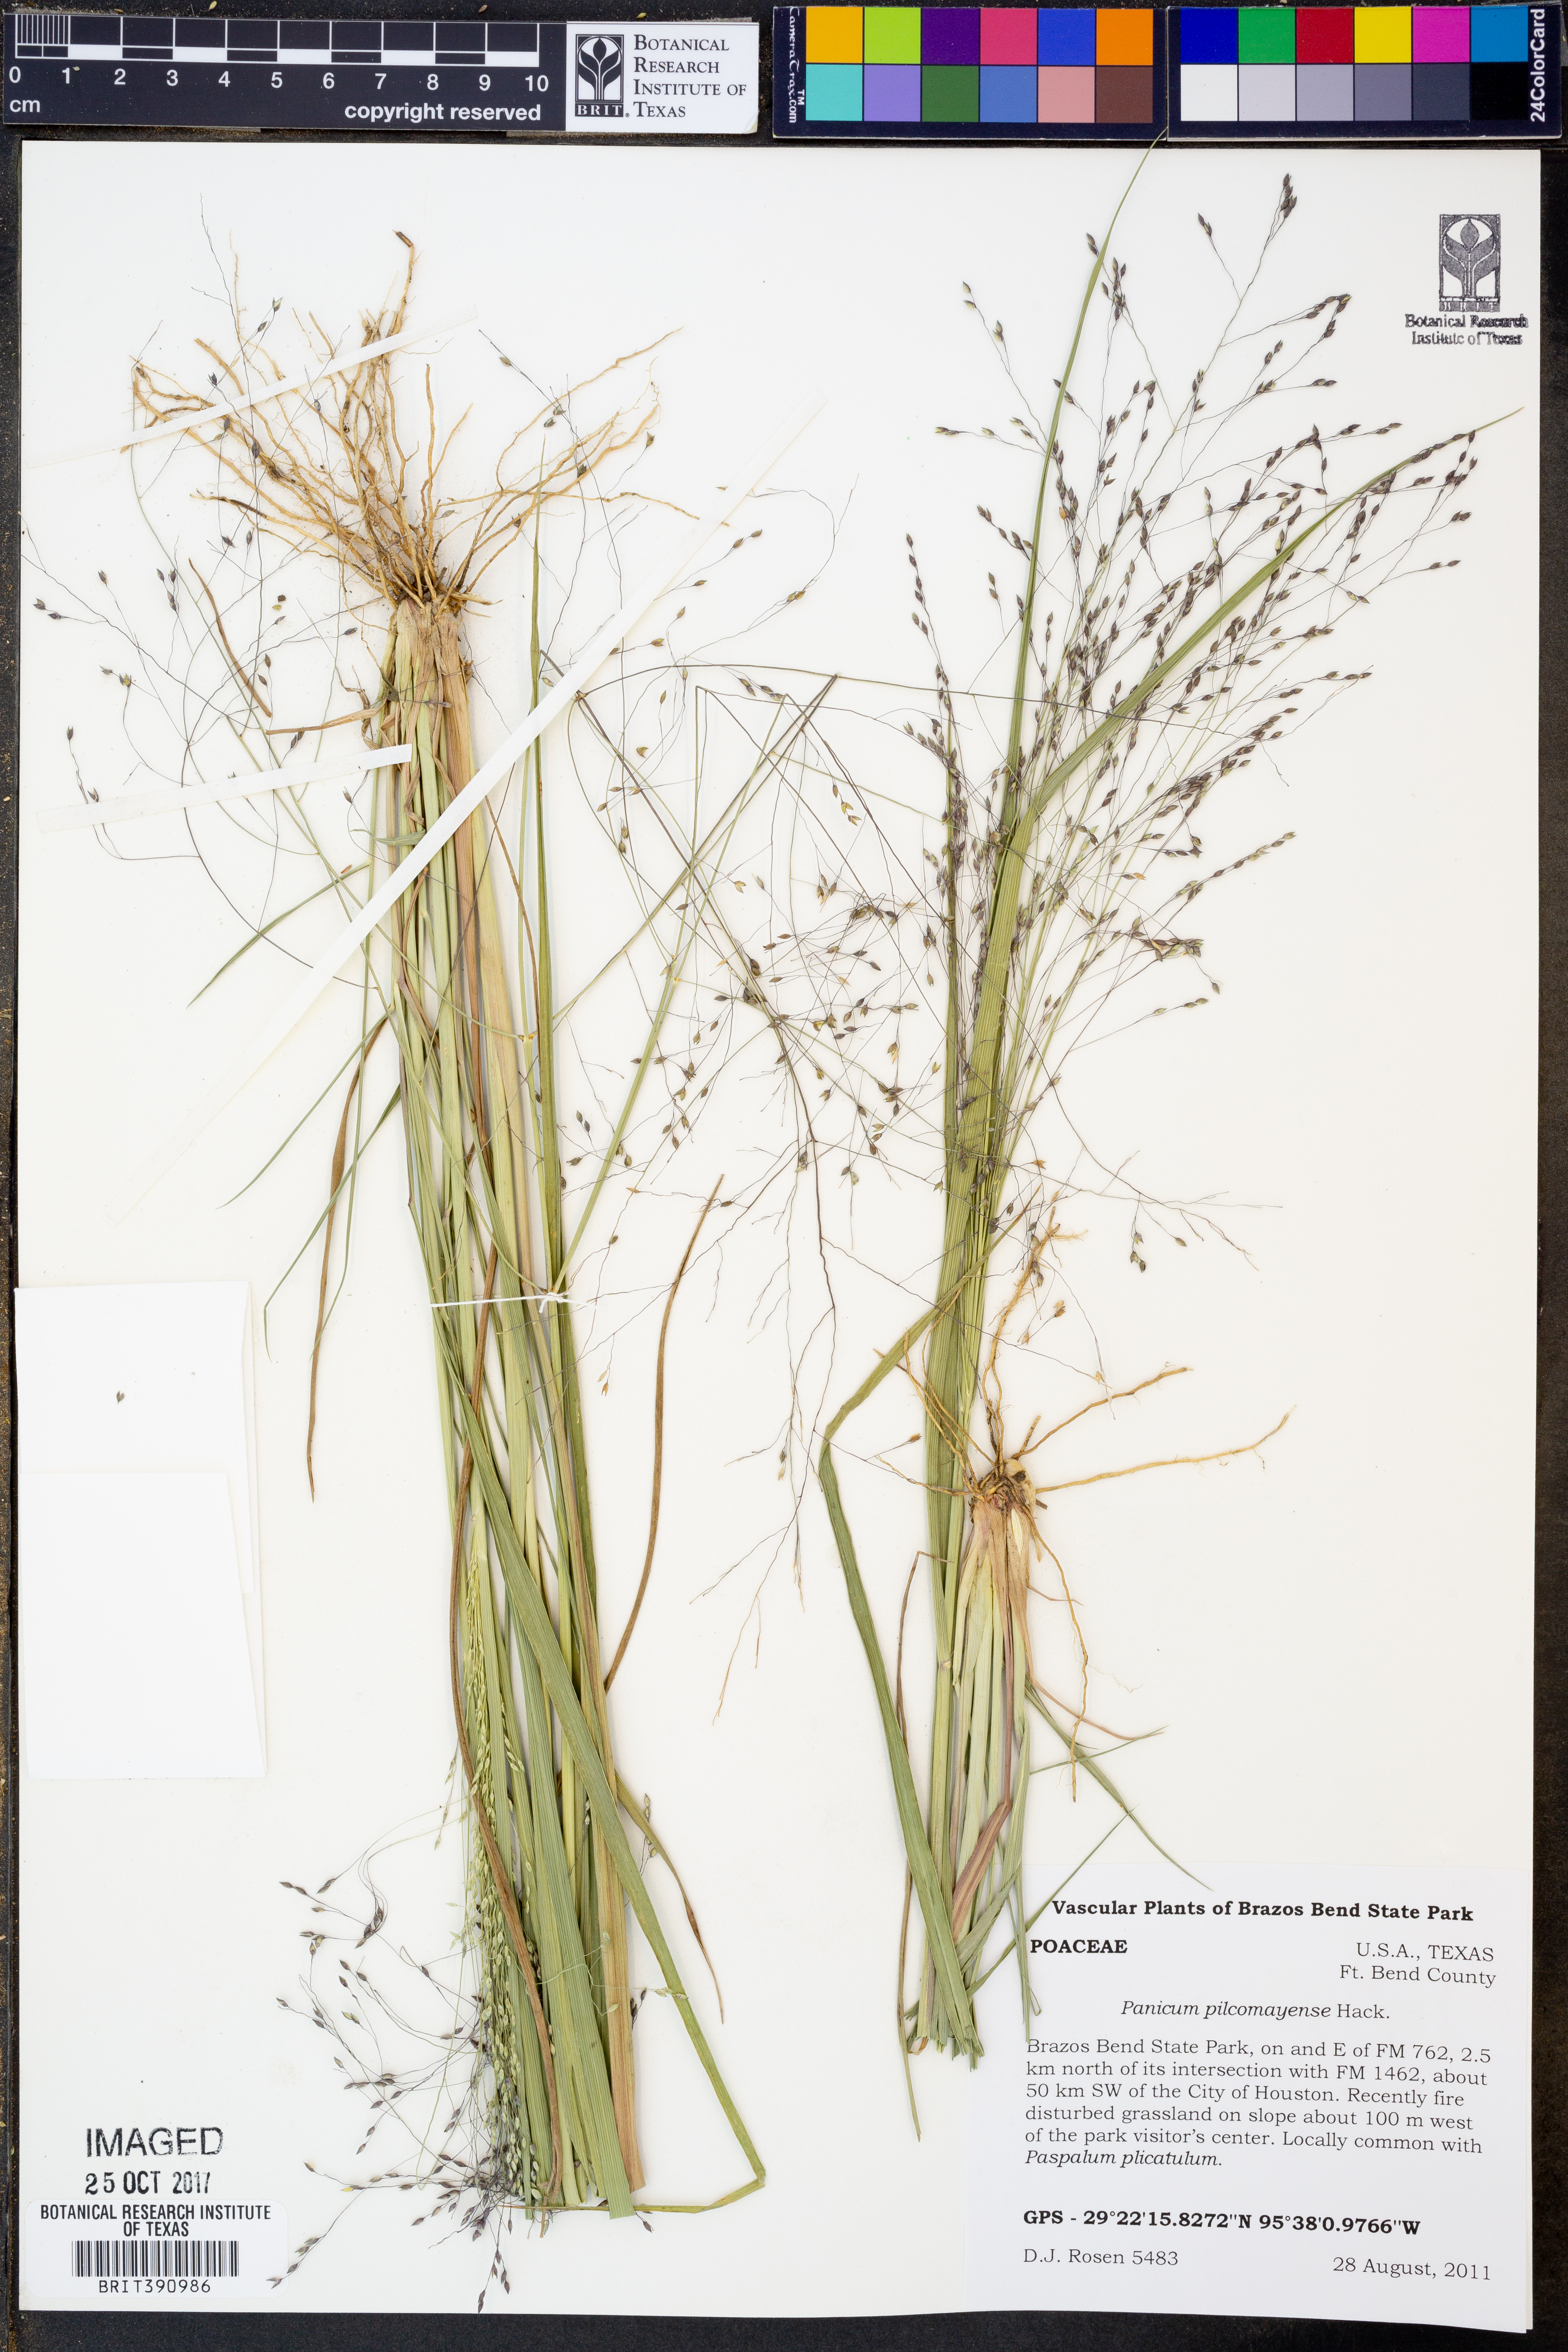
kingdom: Plantae
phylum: Tracheophyta
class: Liliopsida
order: Poales
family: Poaceae
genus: Panicum
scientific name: Panicum bergii
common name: Berg's panicgrass
